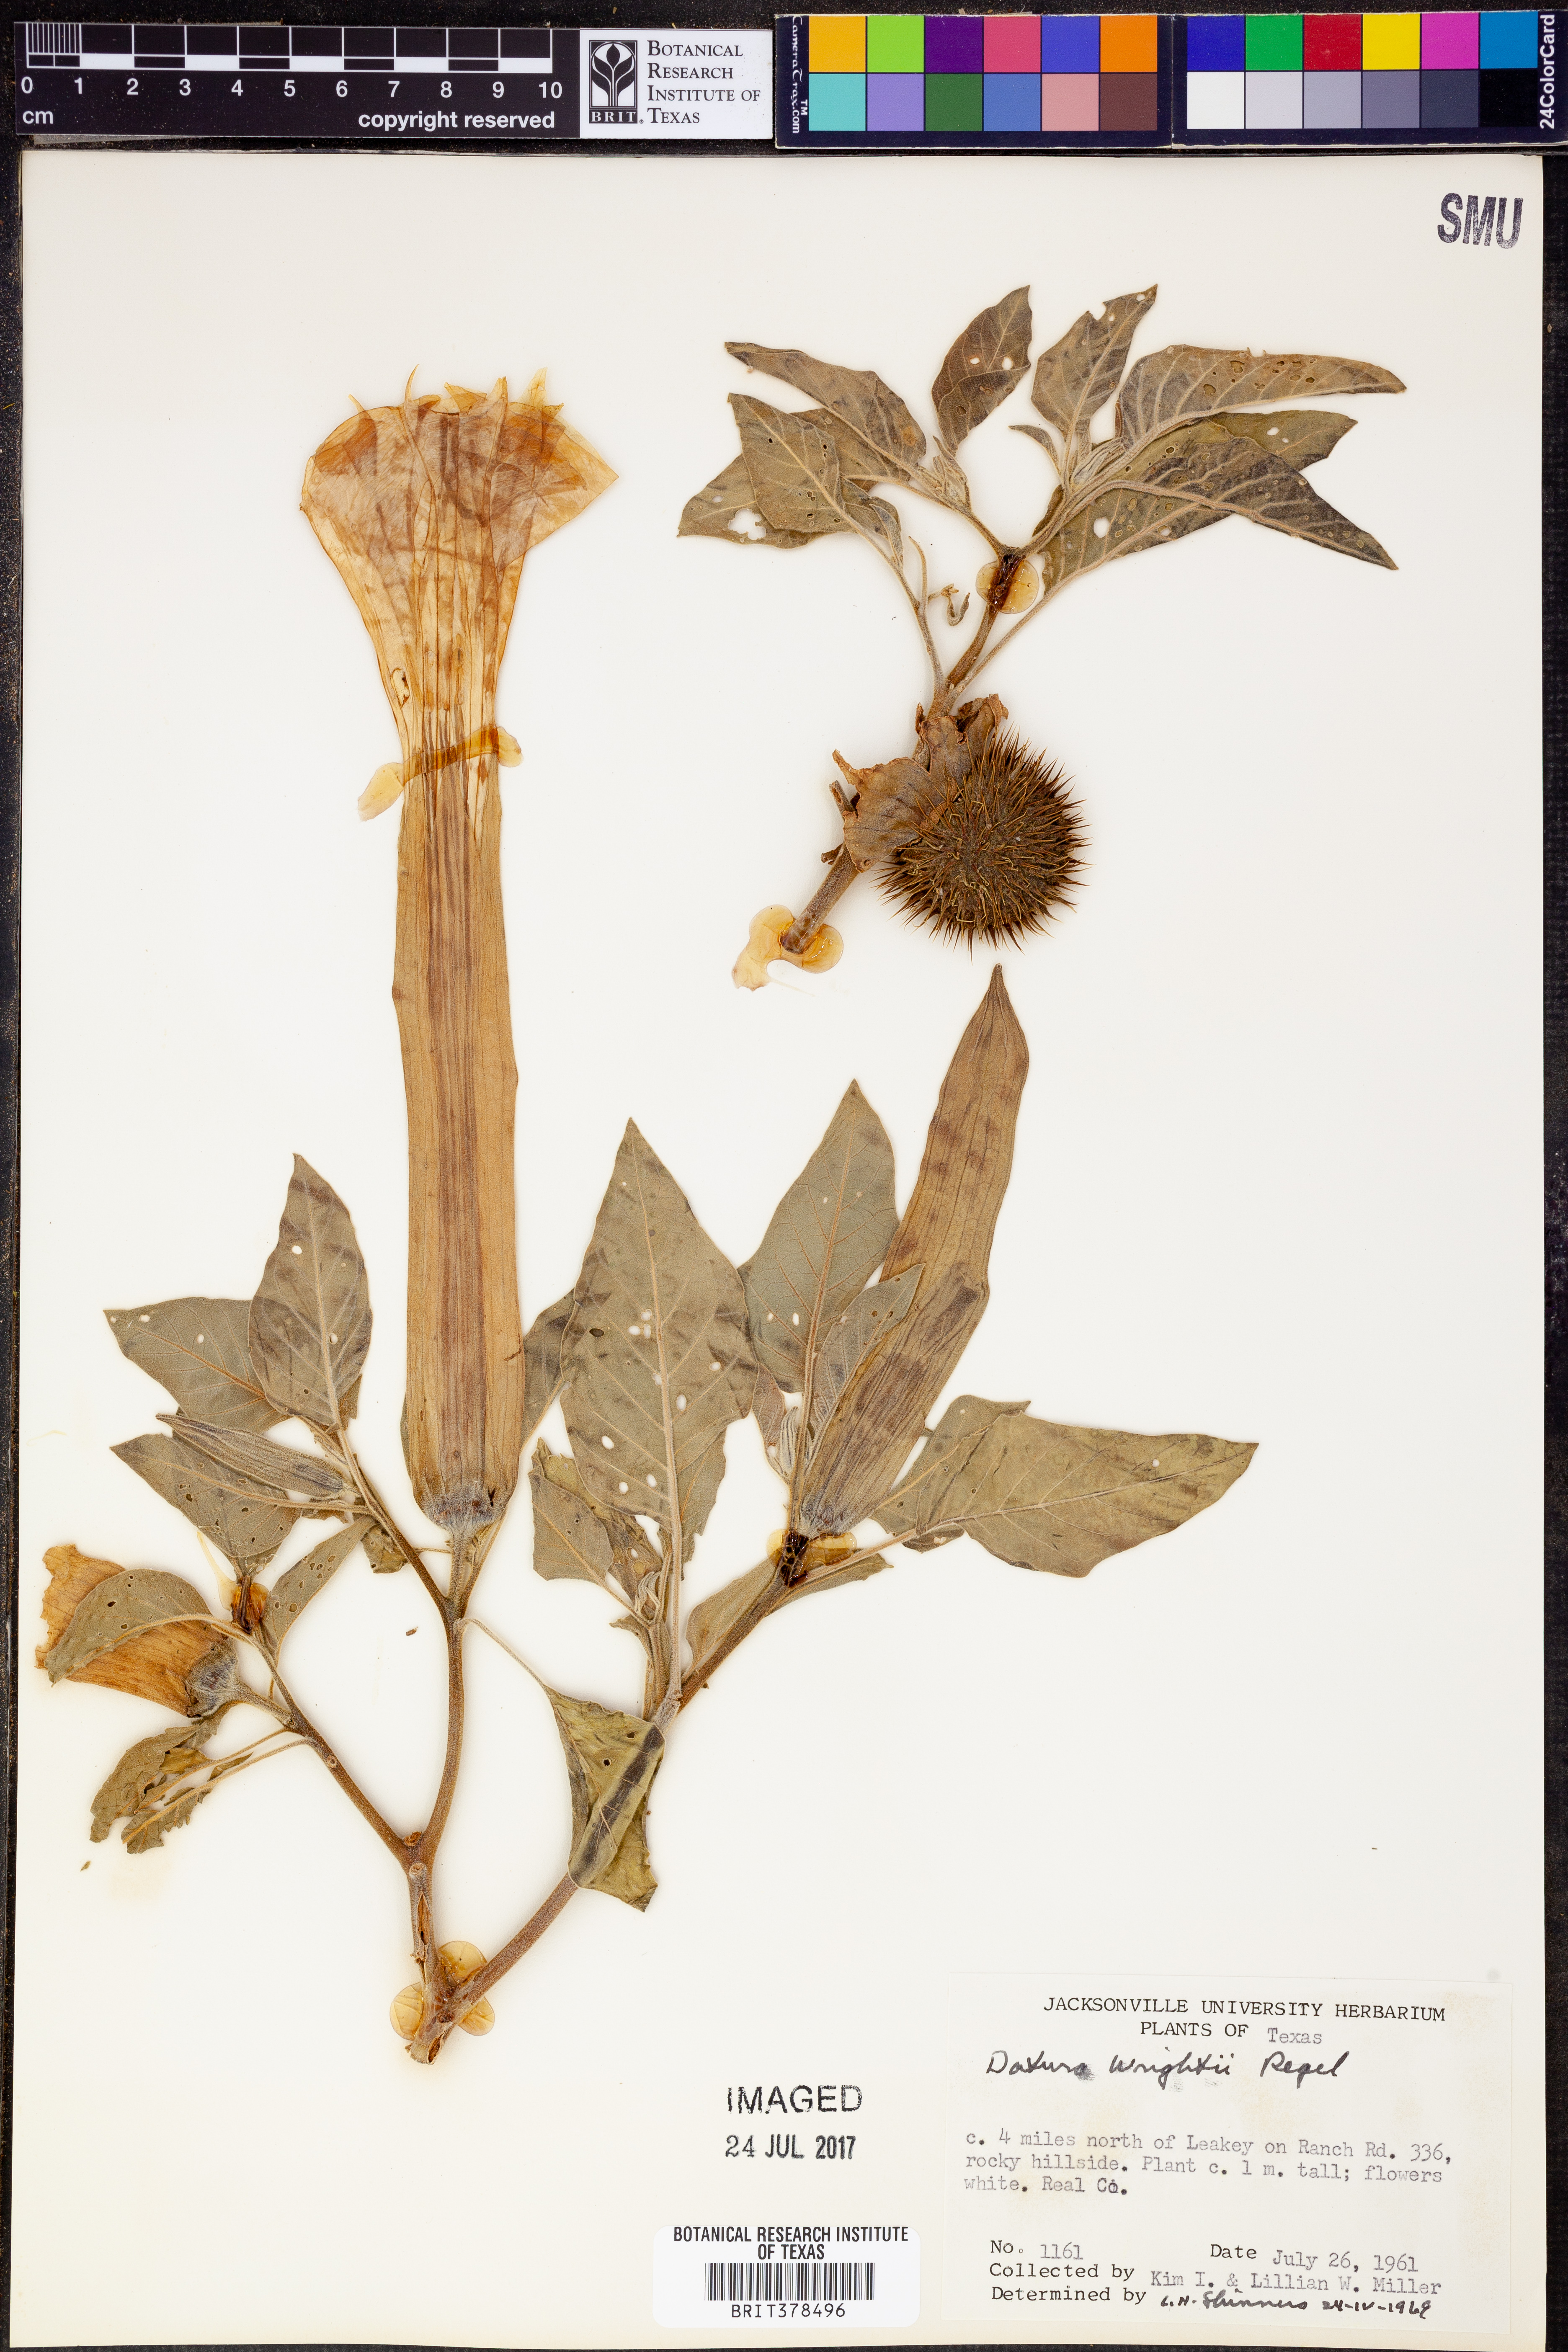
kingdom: Plantae
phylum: Tracheophyta
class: Magnoliopsida
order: Solanales
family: Solanaceae
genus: Datura
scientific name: Datura wrightii
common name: Sacred thorn-apple
